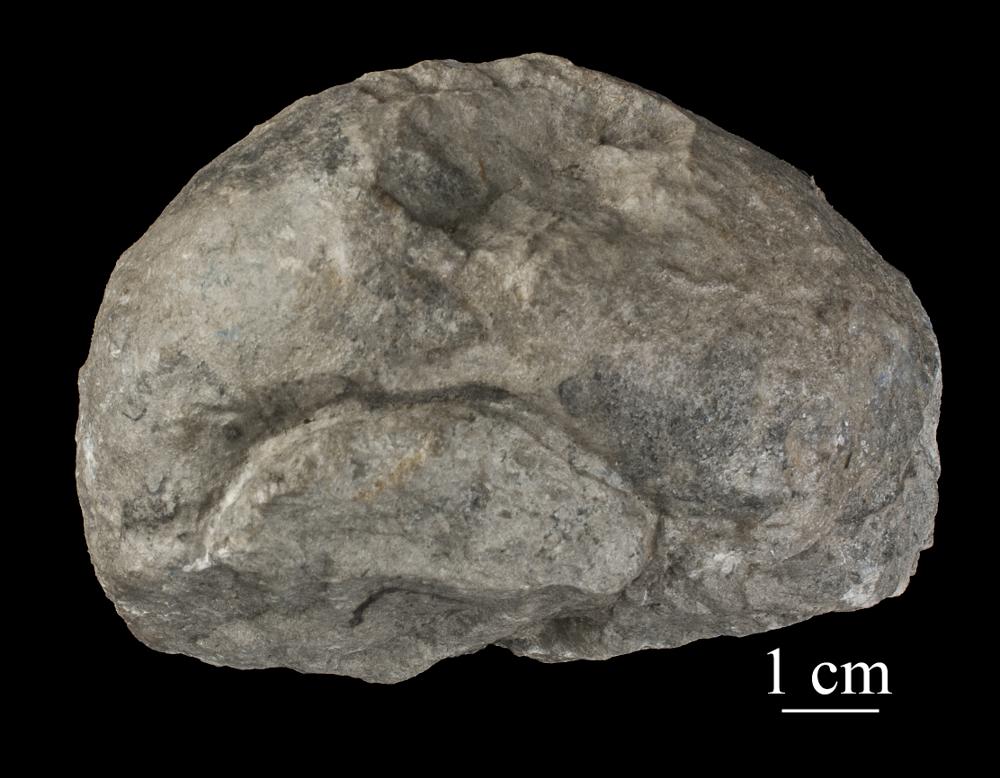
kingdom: Animalia
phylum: Mollusca
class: Gastropoda
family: Holopeidae
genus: Holopea
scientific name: Holopea ampullacea
